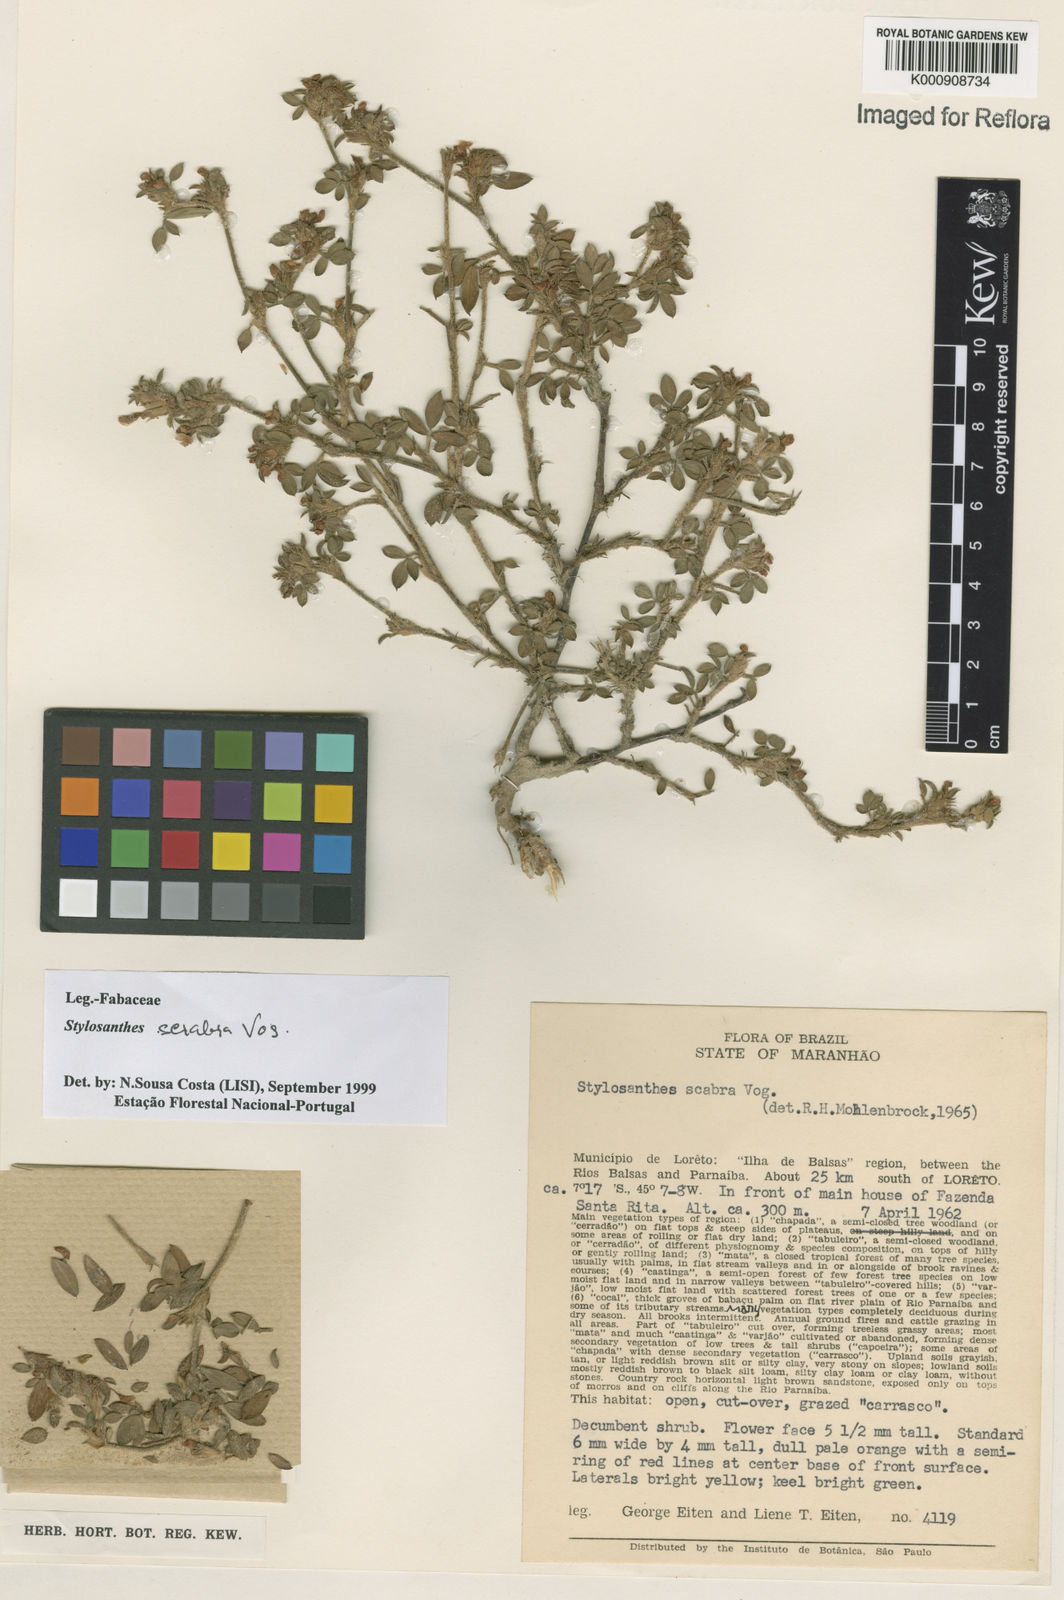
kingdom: Plantae
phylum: Tracheophyta
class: Magnoliopsida
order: Fabales
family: Fabaceae
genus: Stylosanthes
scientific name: Stylosanthes scabra
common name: Pencilflower
